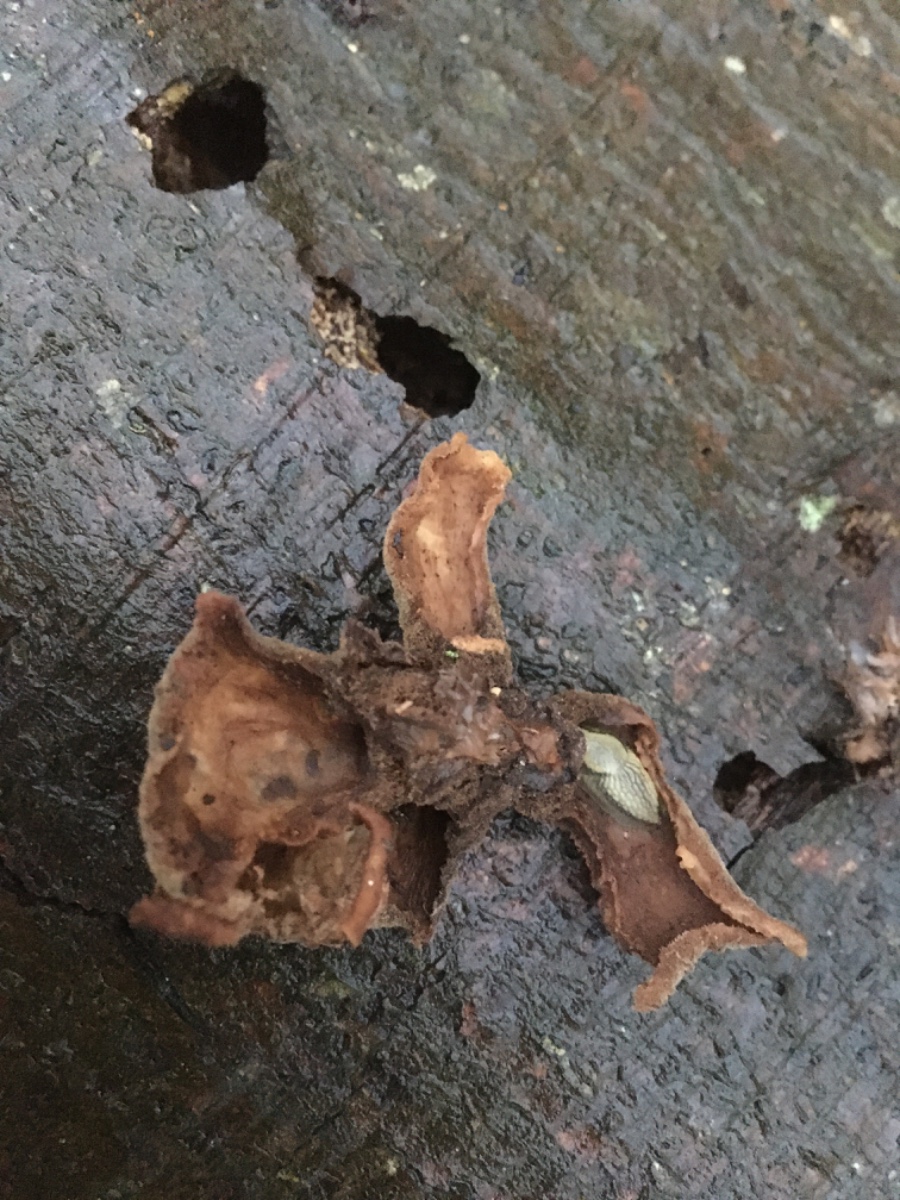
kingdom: Fungi
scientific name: Fungi
